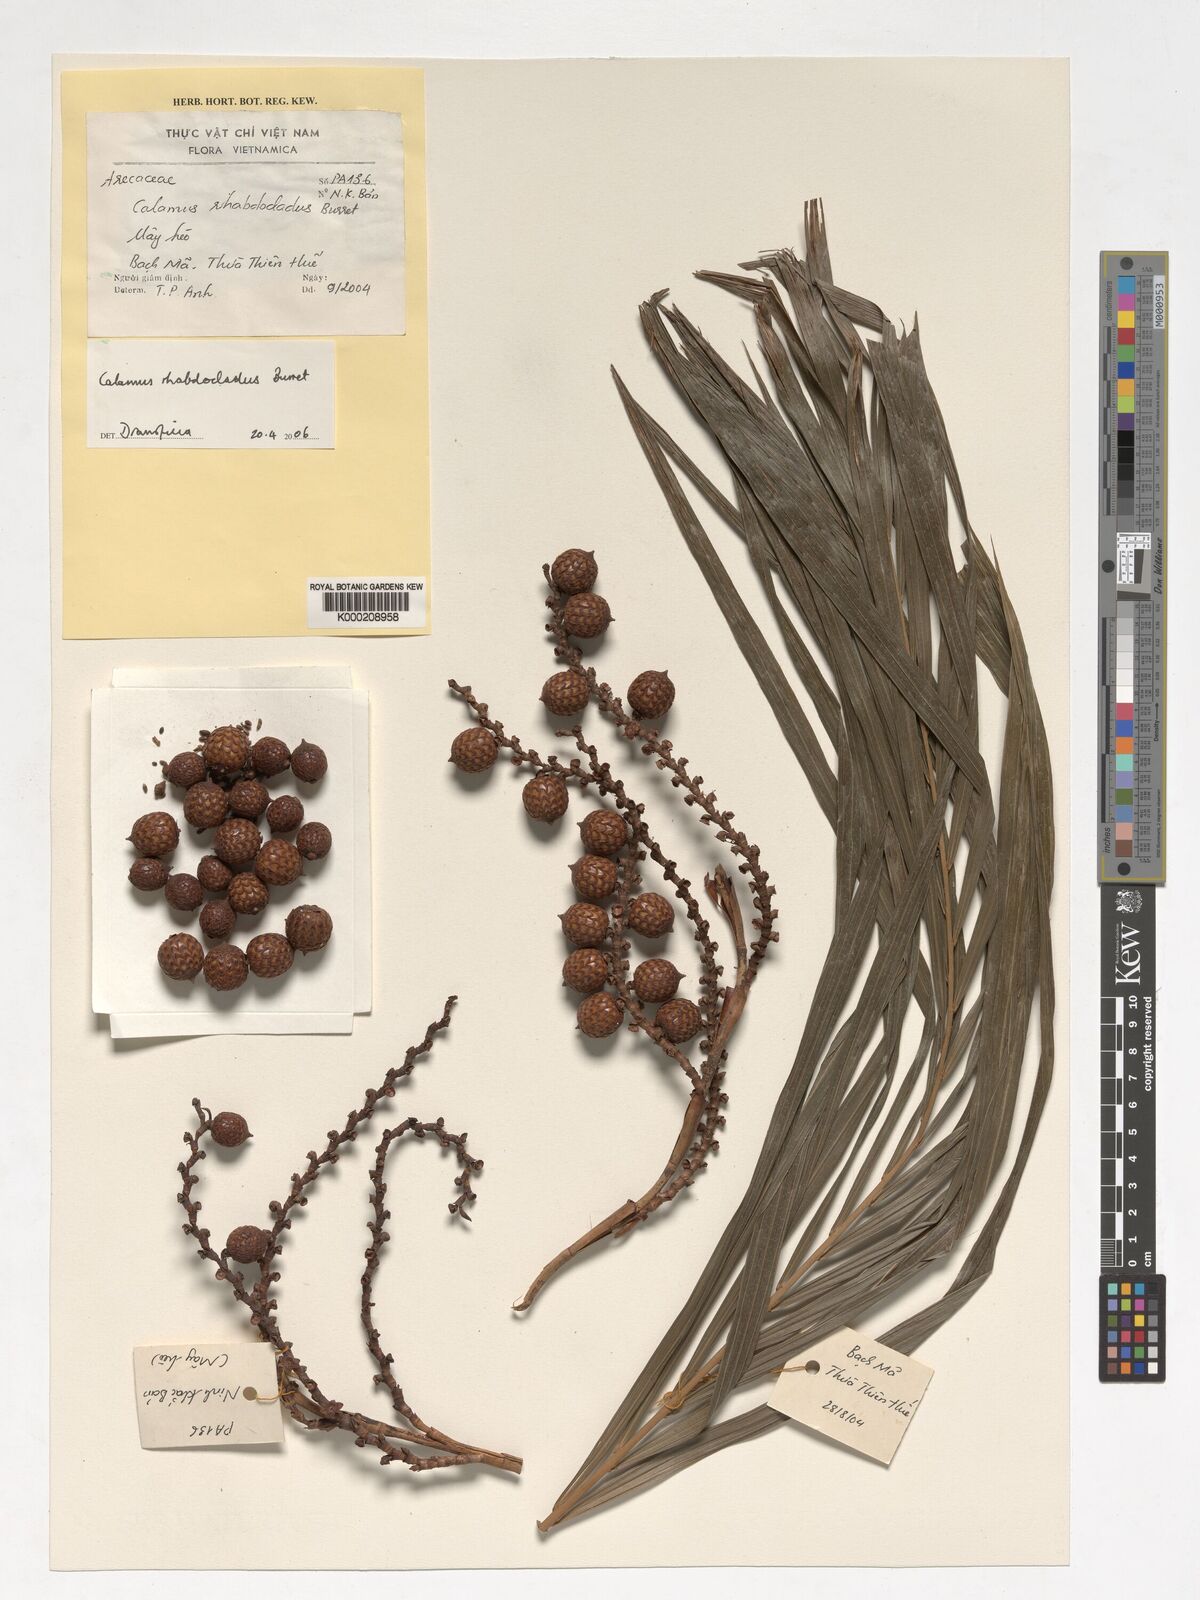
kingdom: Plantae
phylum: Tracheophyta
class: Liliopsida
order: Arecales
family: Arecaceae
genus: Calamus
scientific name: Calamus rhabdocladus
